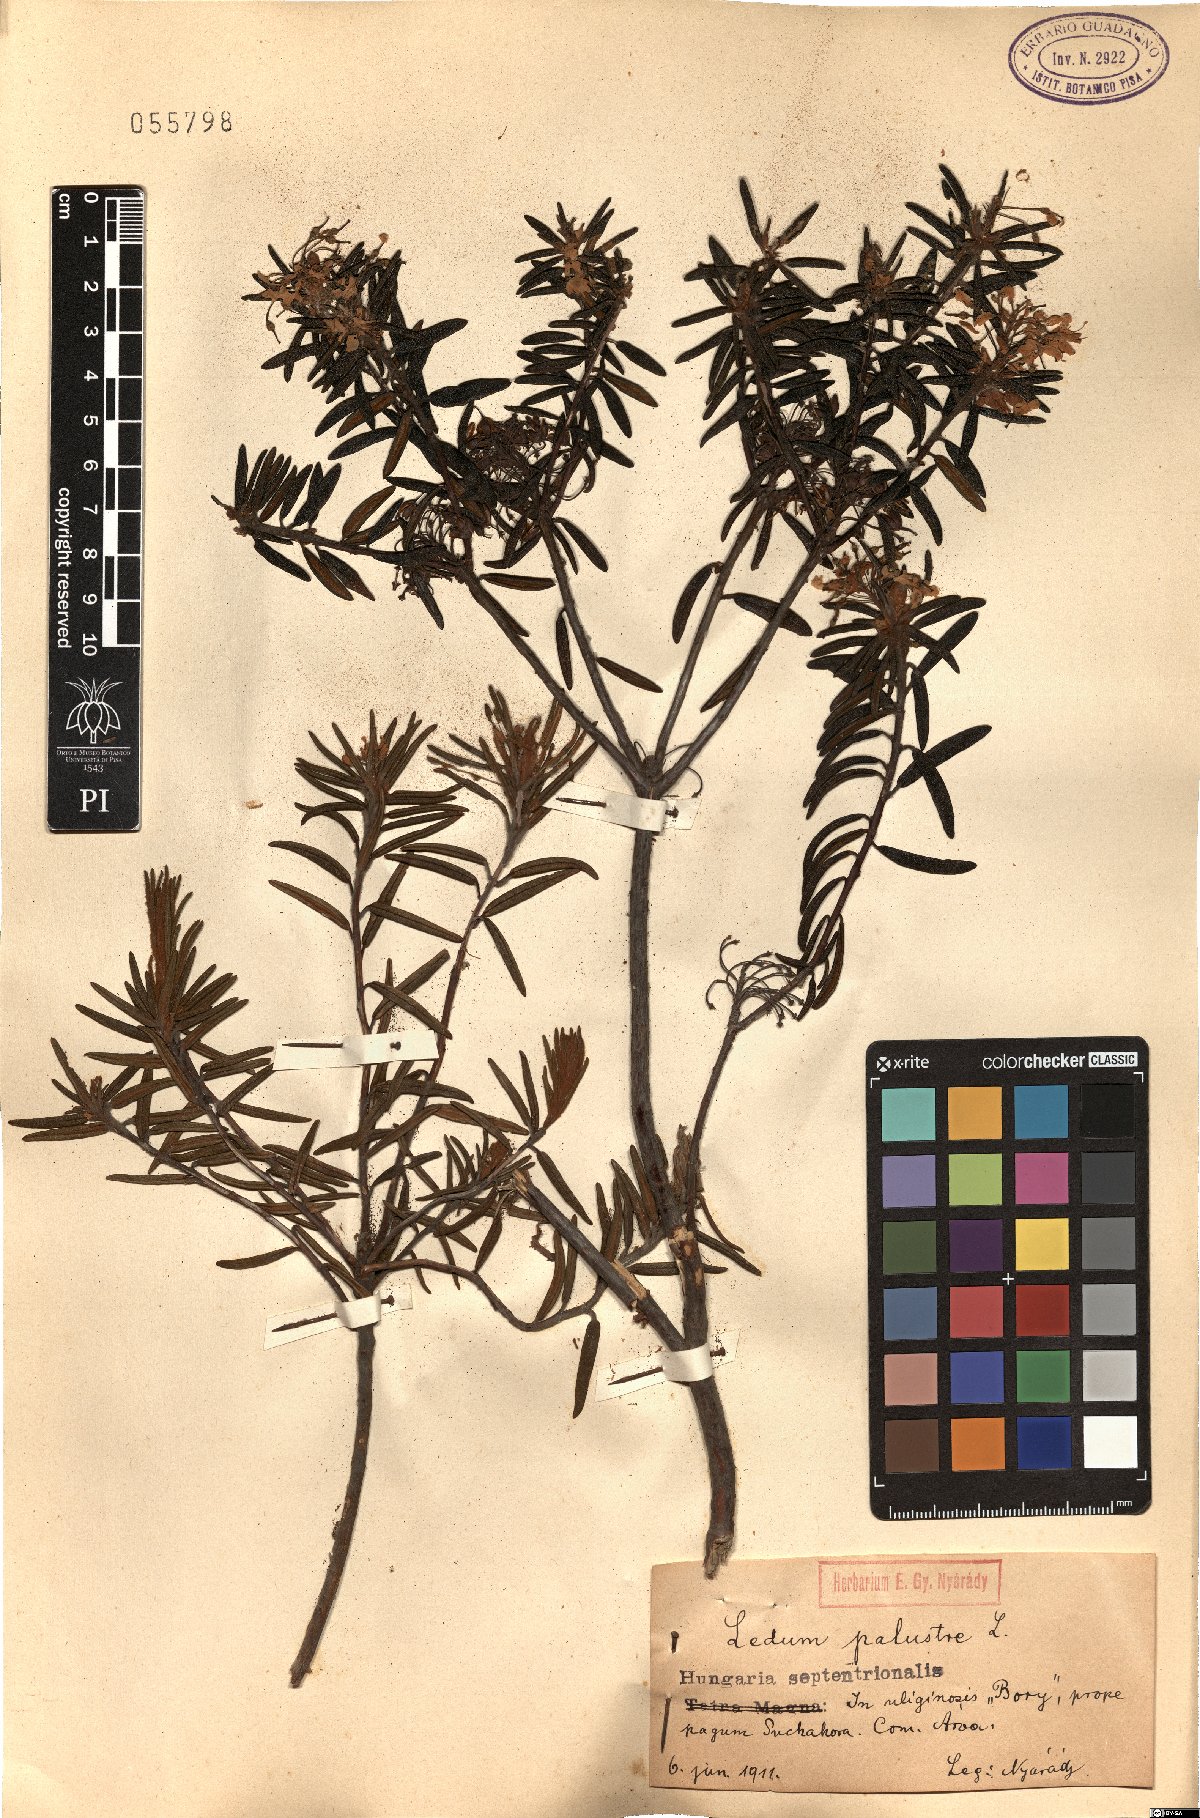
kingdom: Plantae
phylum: Tracheophyta
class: Magnoliopsida
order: Ericales
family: Ericaceae
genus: Rhododendron
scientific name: Rhododendron tomentosum
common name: Marsh labrador tea
